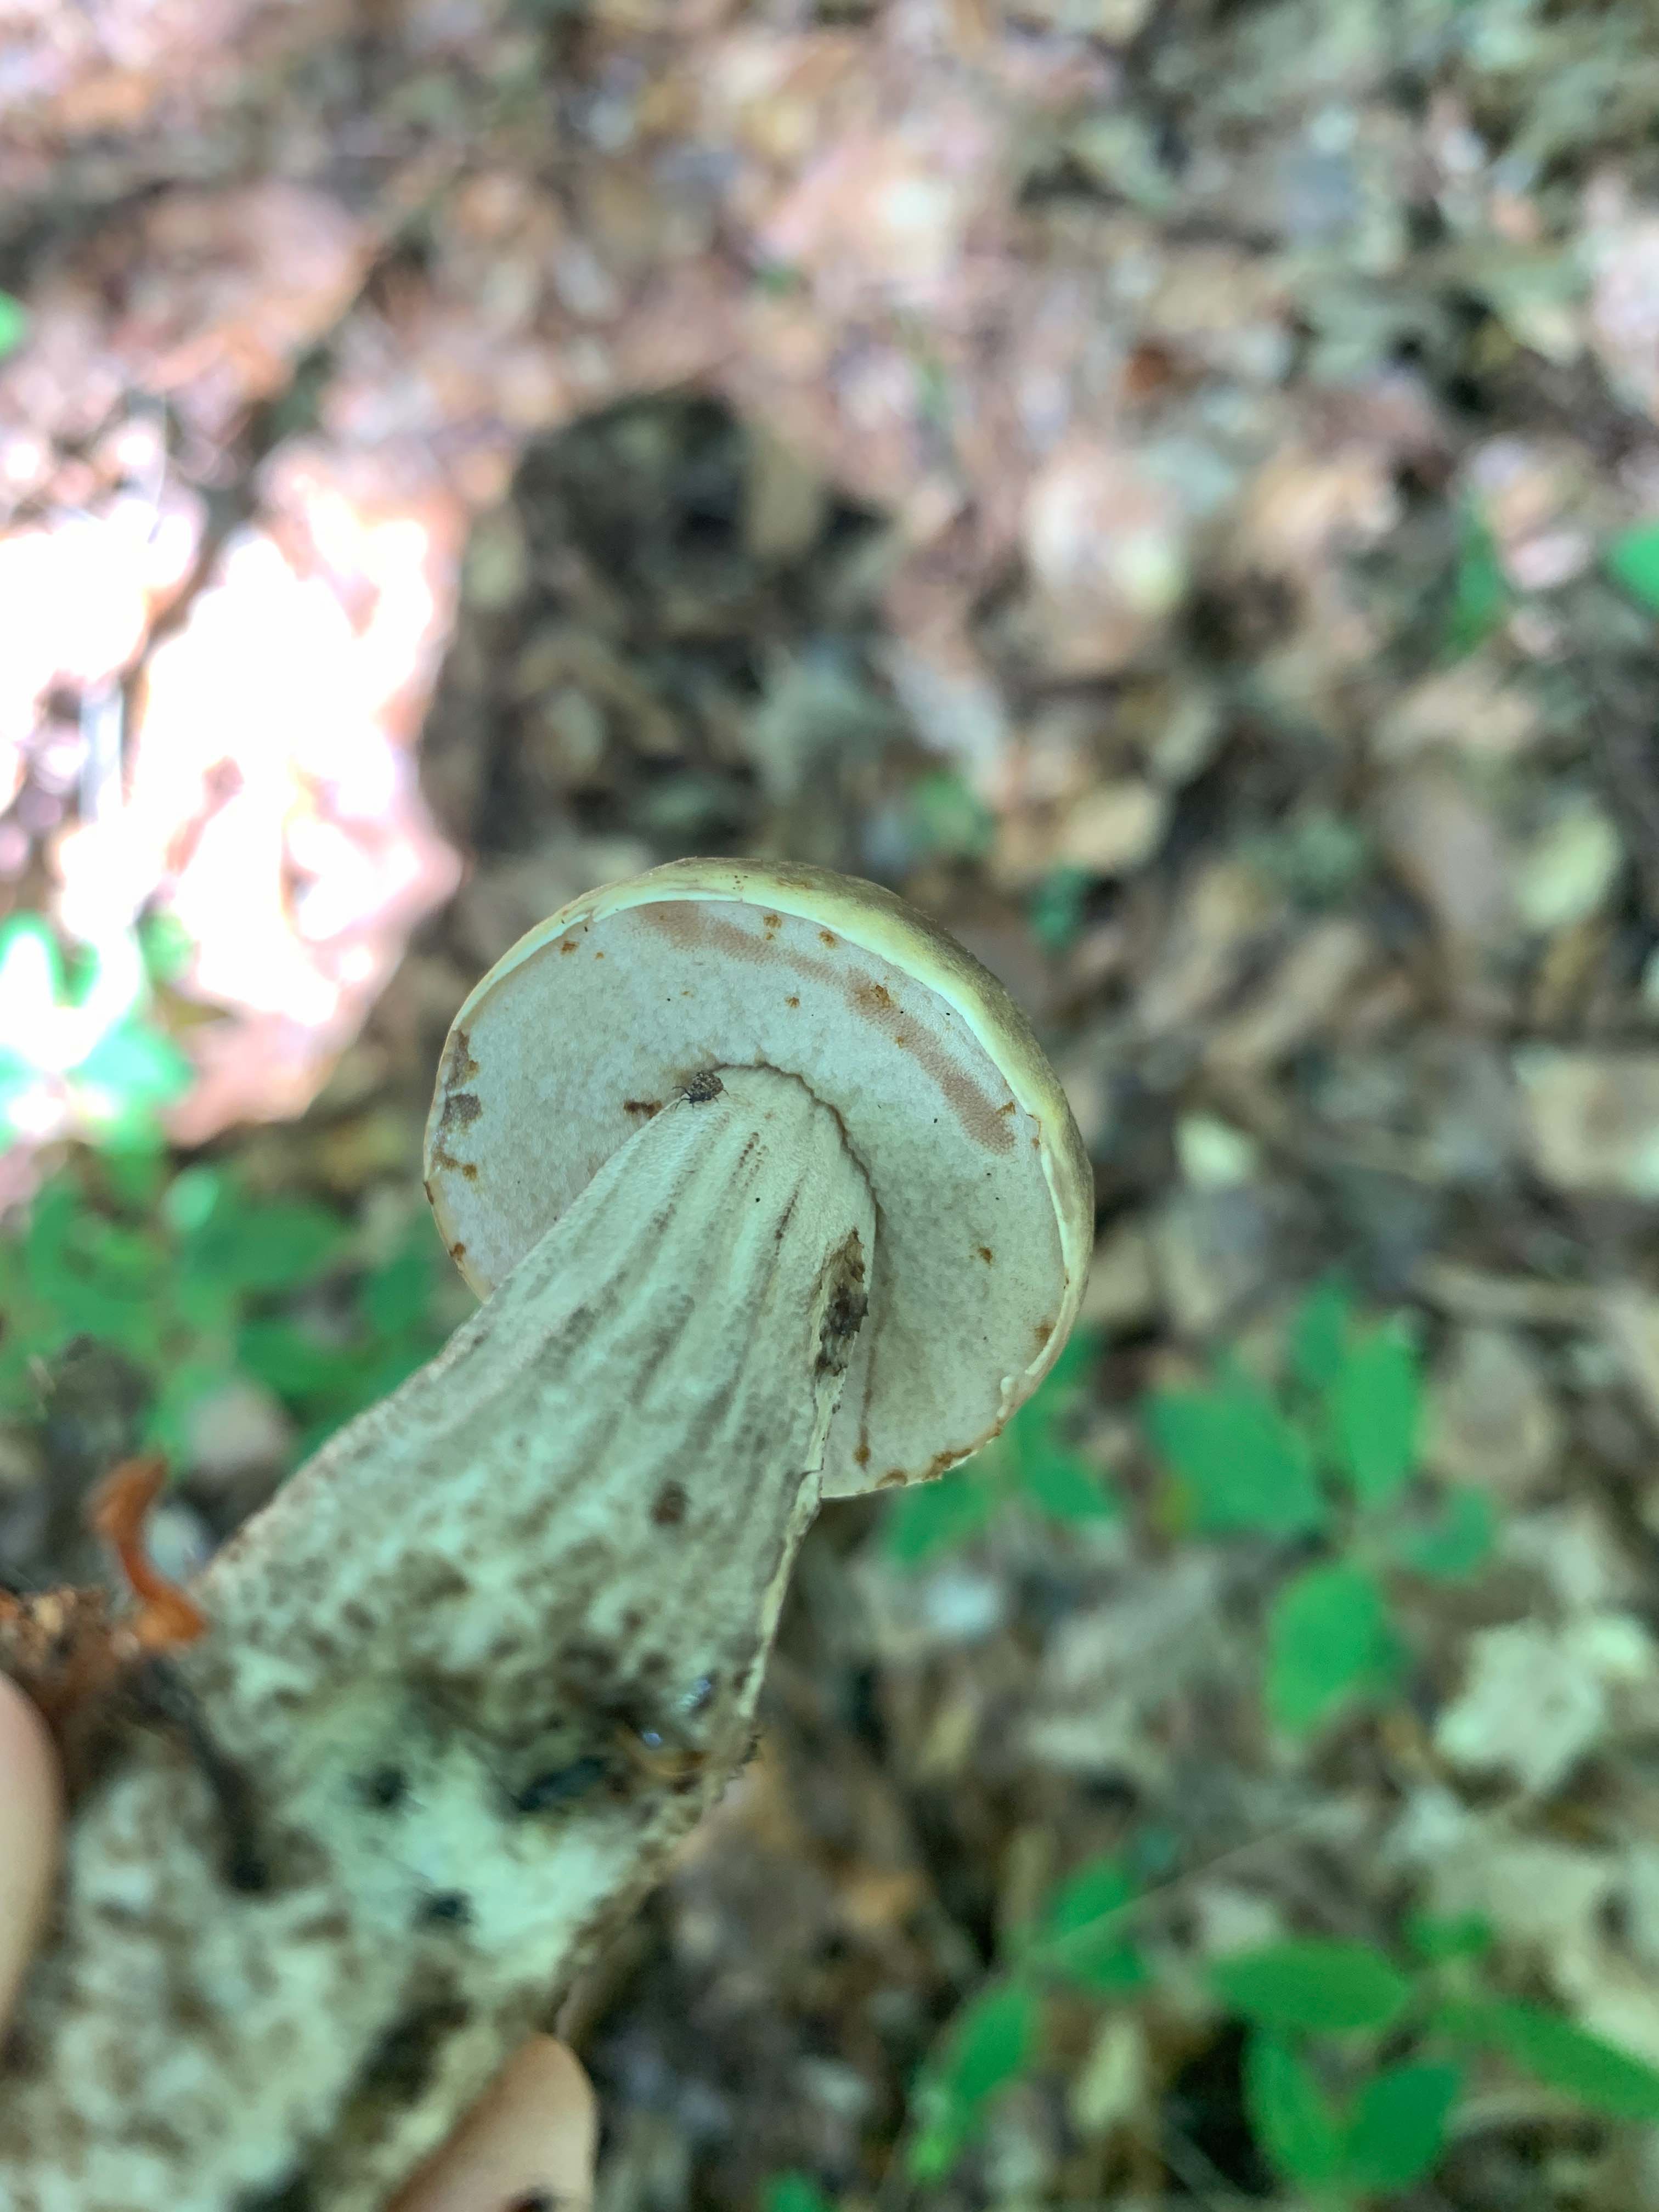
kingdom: Fungi
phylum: Basidiomycota
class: Agaricomycetes
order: Boletales
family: Boletaceae
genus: Leccinum
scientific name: Leccinum
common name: skælrørhat
